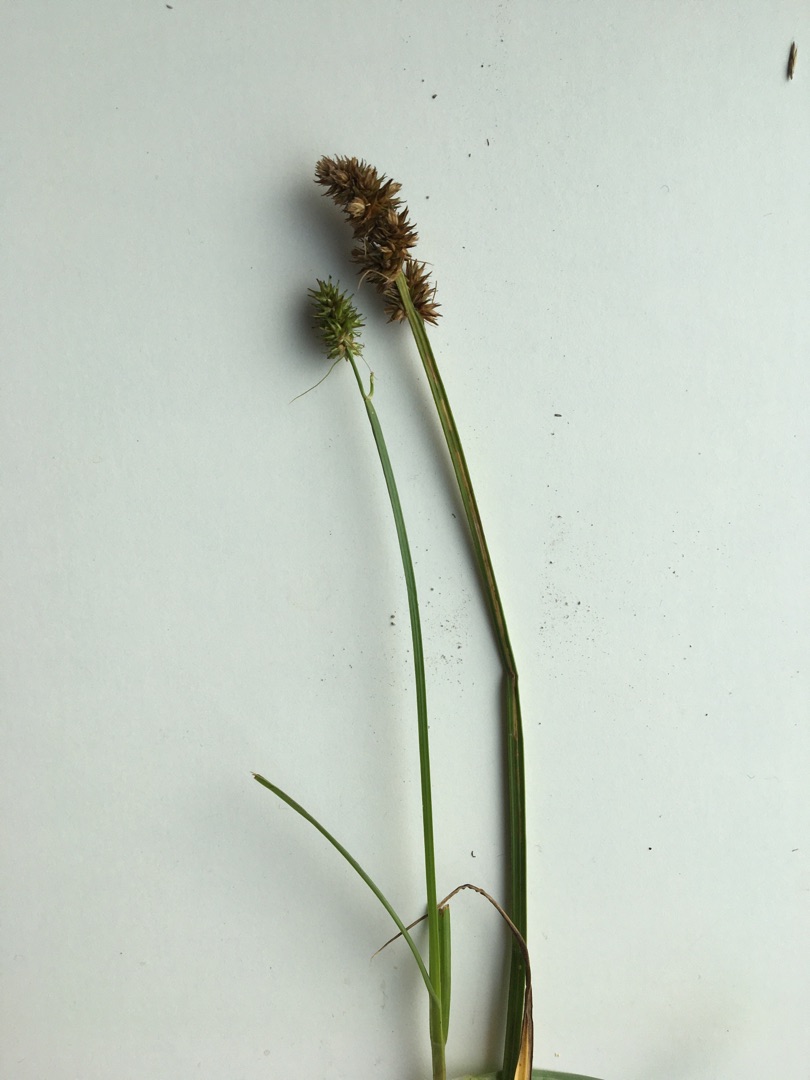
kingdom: Plantae
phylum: Tracheophyta
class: Liliopsida
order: Poales
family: Cyperaceae
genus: Carex
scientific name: Carex otrubae
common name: Sylt-star
